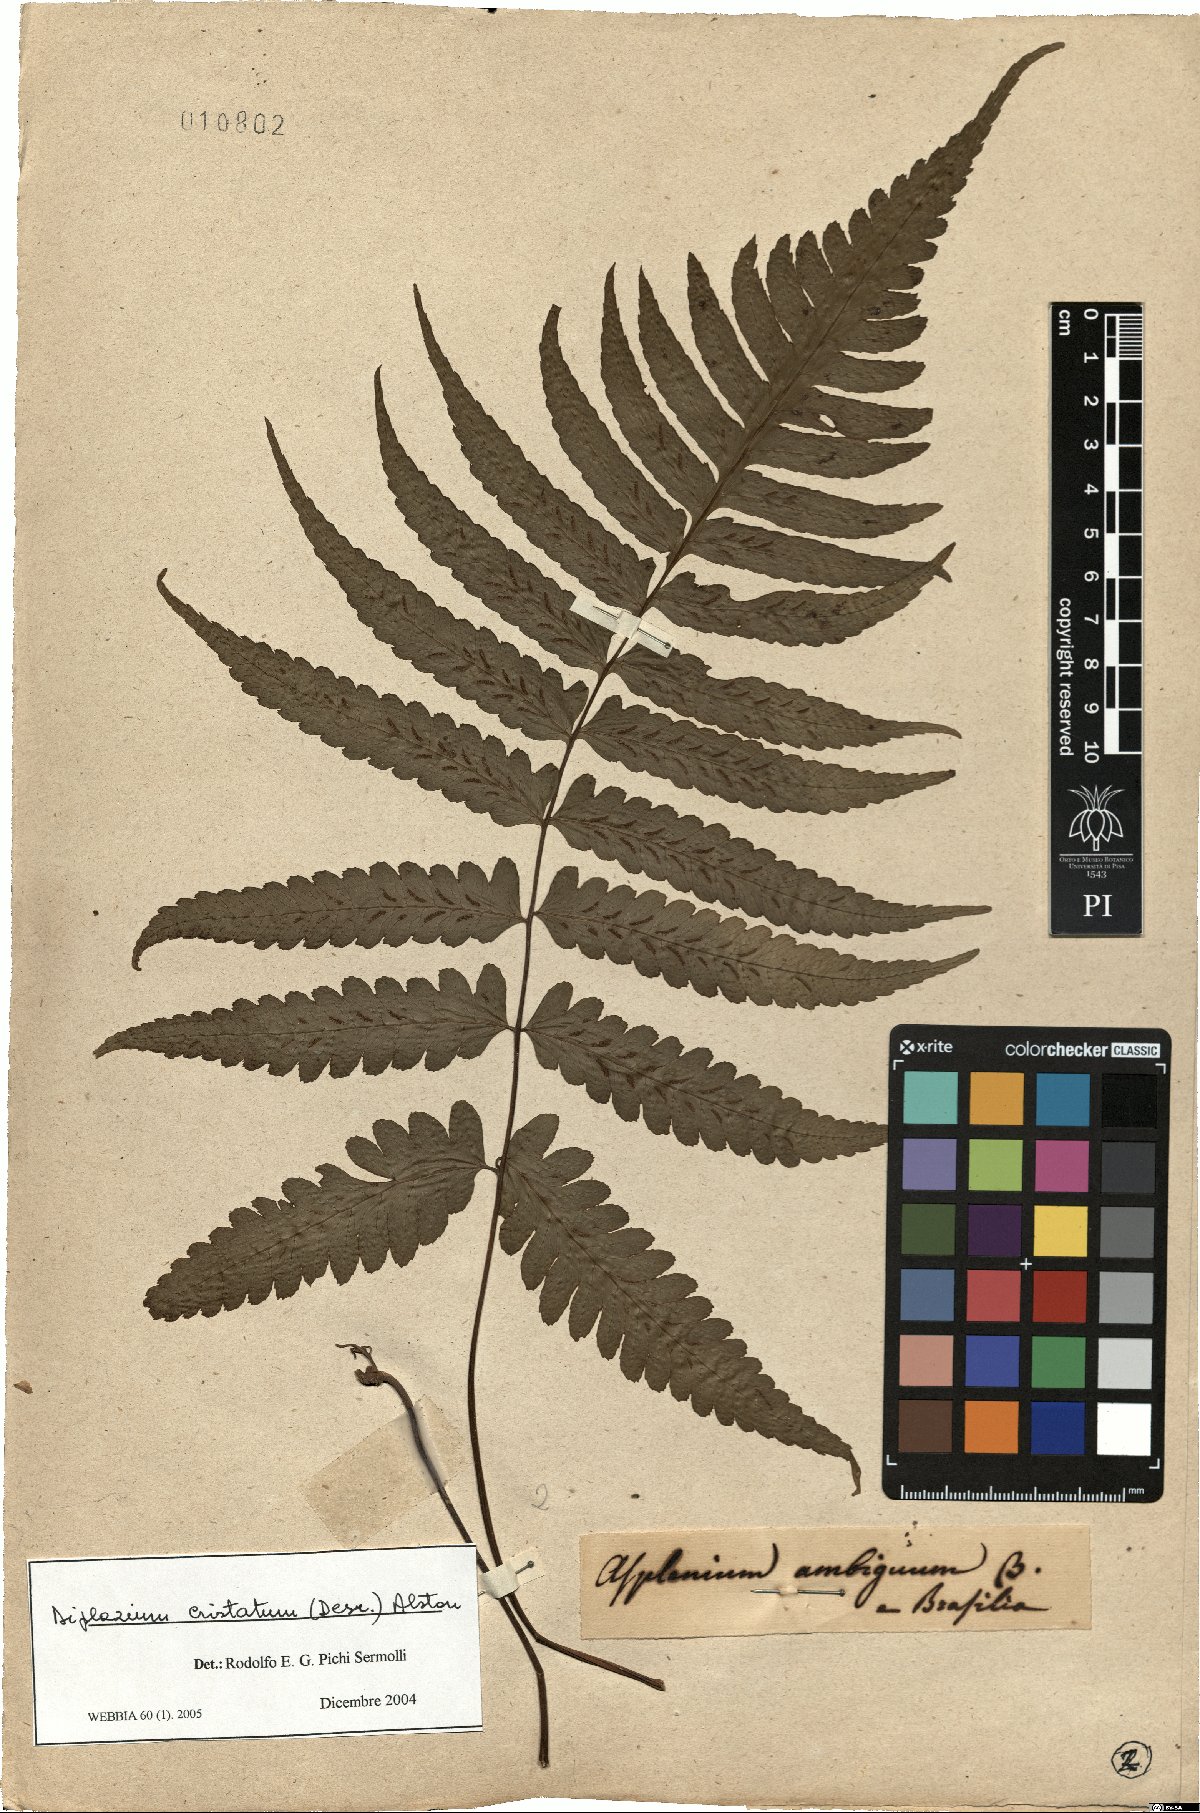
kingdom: Plantae
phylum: Tracheophyta
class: Polypodiopsida
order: Polypodiales
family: Athyriaceae
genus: Diplazium
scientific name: Diplazium cristatum
